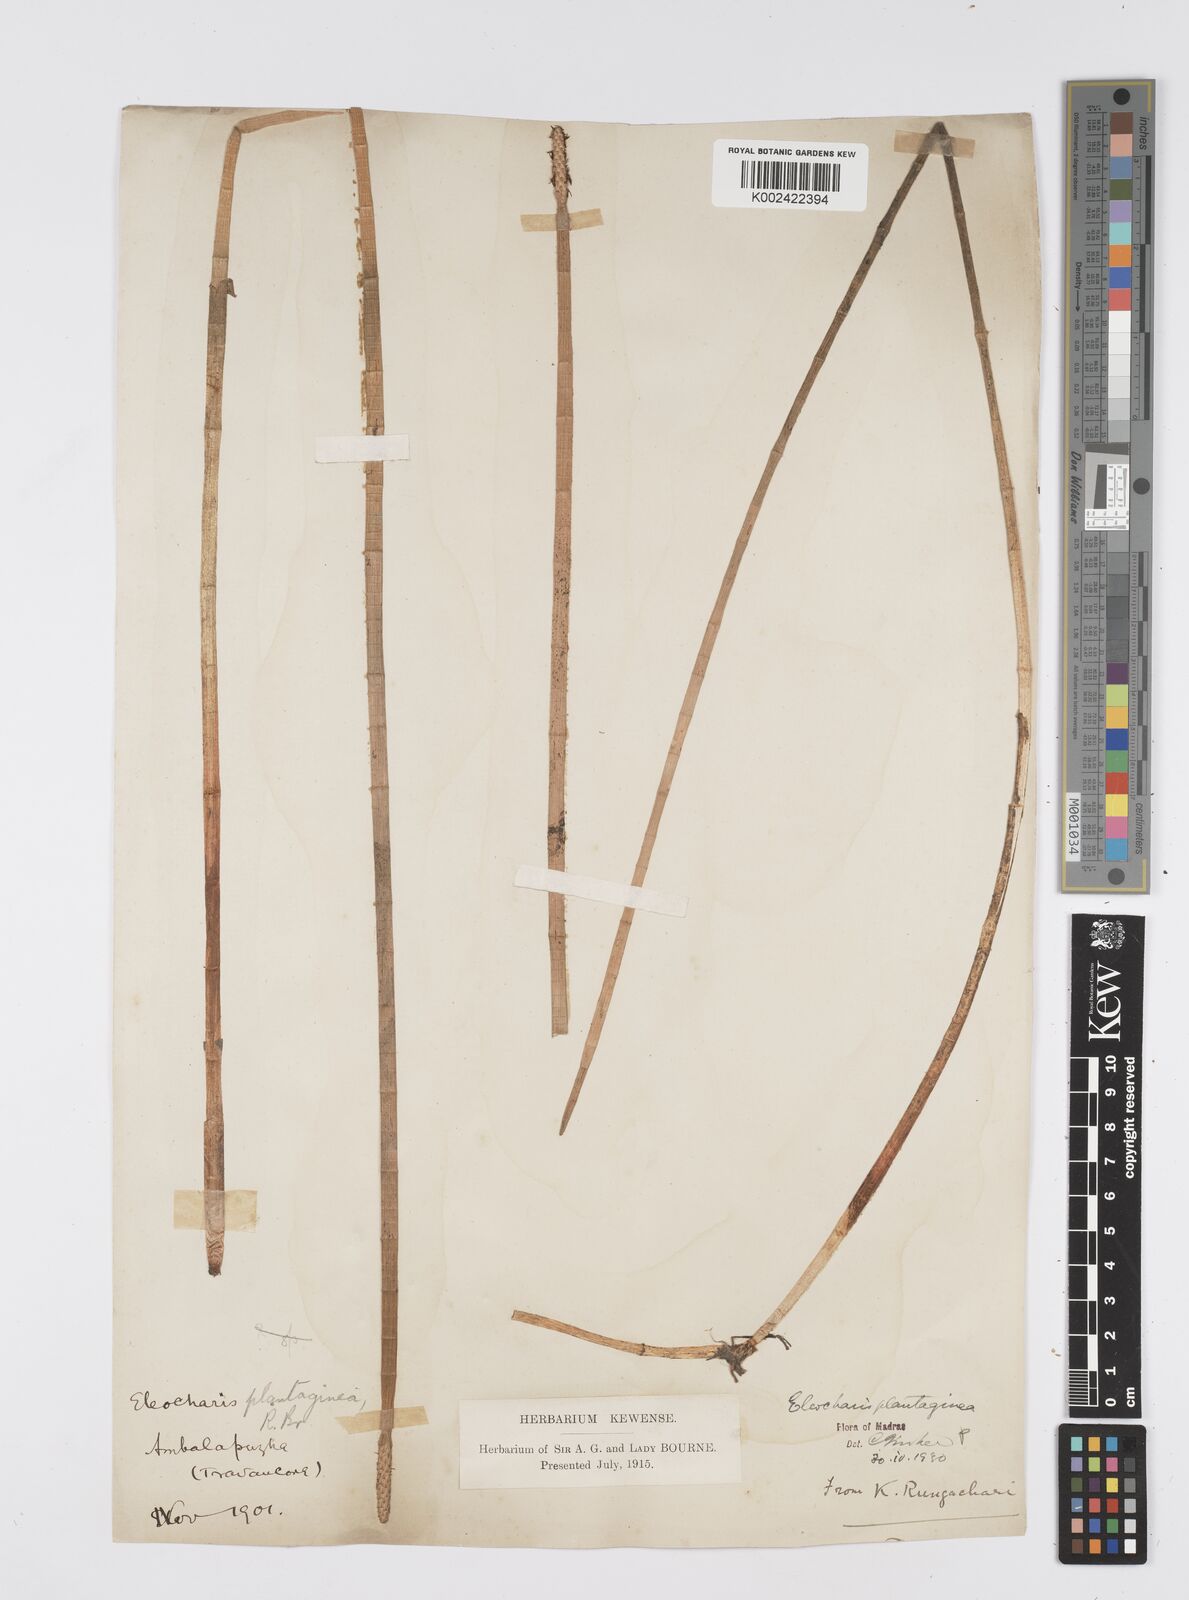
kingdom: Plantae
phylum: Tracheophyta
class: Liliopsida
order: Poales
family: Cyperaceae
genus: Eleocharis
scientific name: Eleocharis dulcis
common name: Chinese water chestnut
